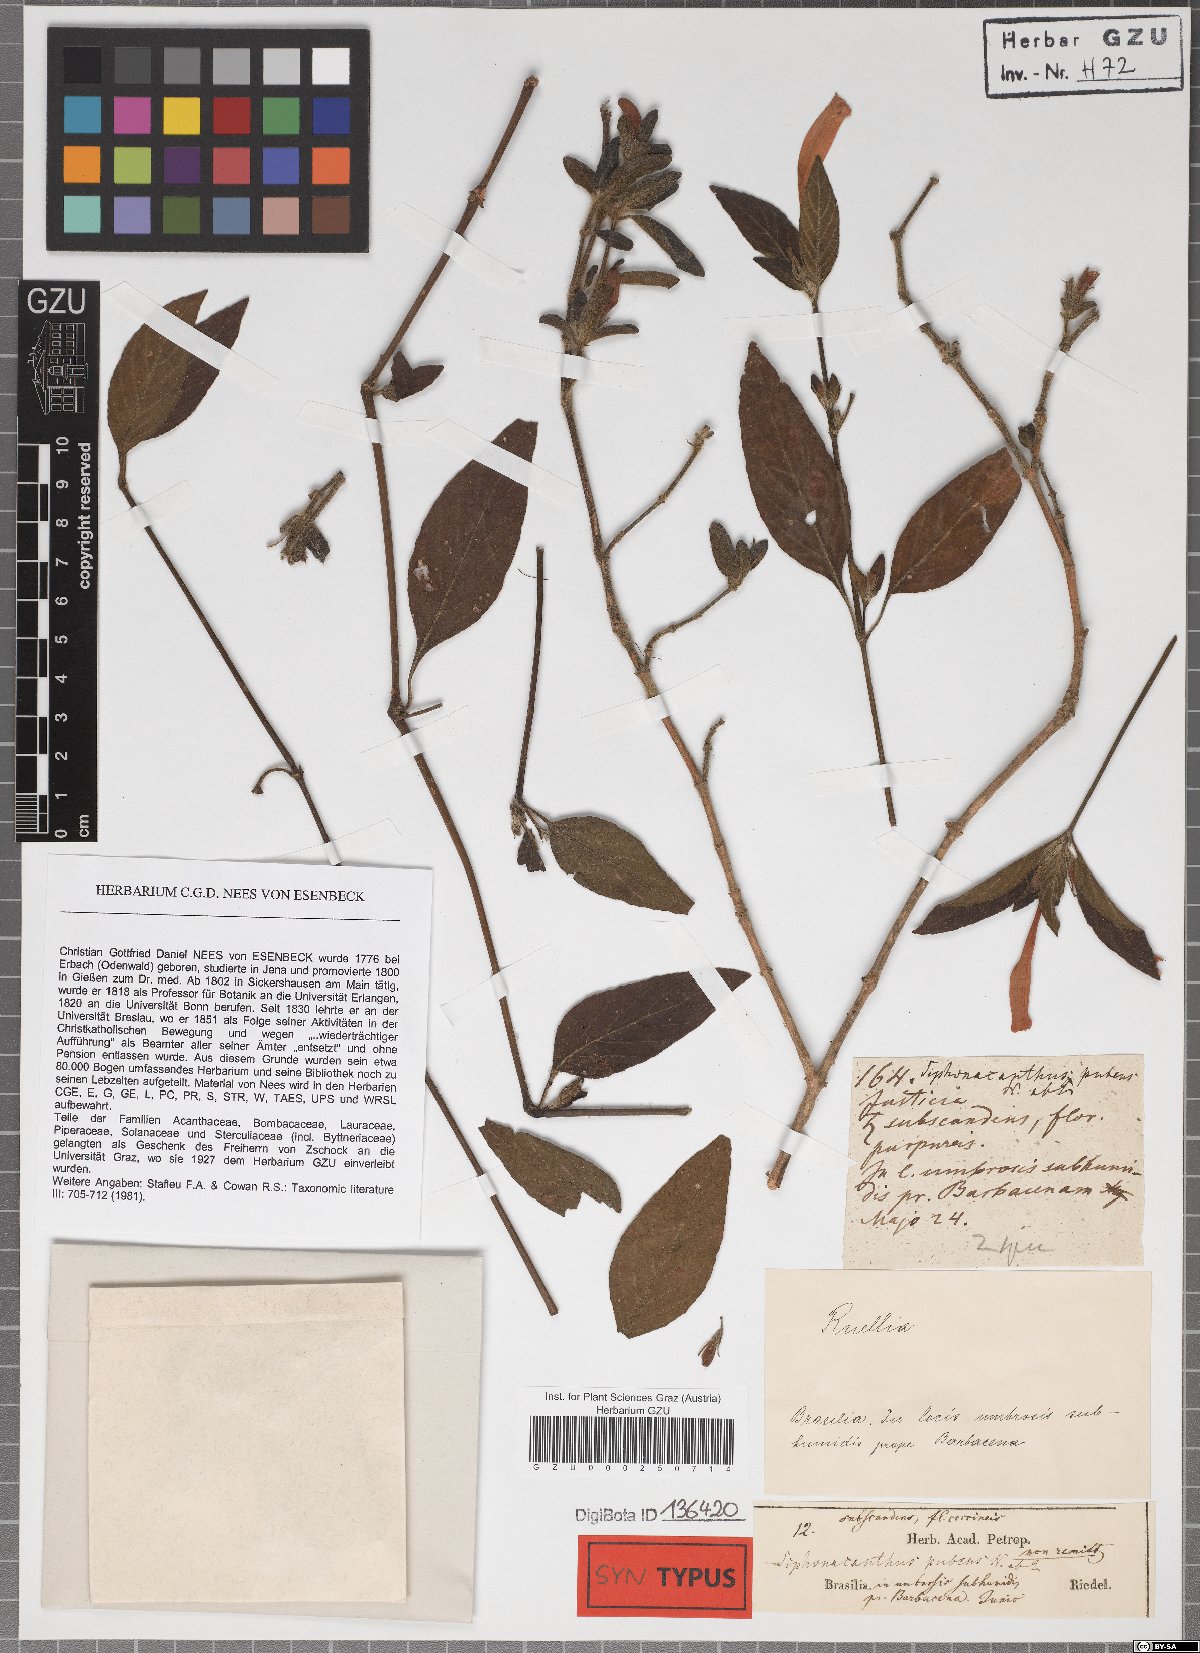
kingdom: Plantae
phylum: Tracheophyta
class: Magnoliopsida
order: Lamiales
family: Acanthaceae
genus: Ruellia
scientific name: Ruellia Siphonacanthus pubens
